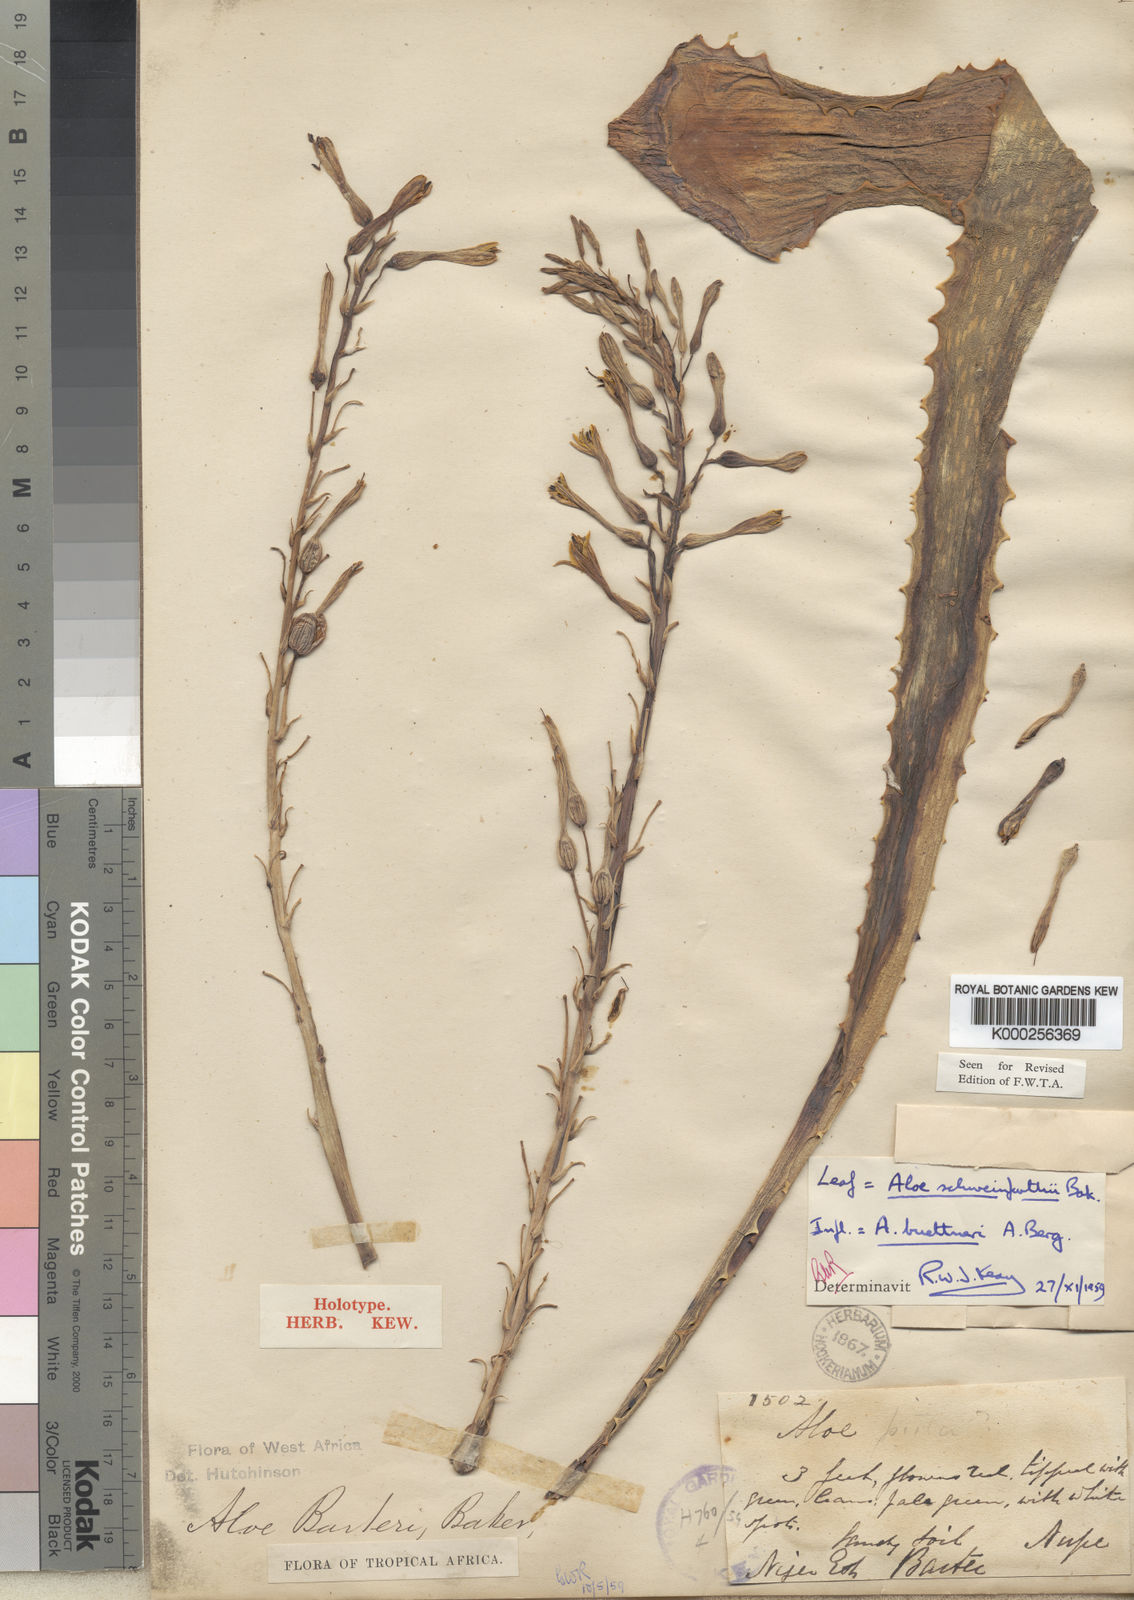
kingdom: Plantae
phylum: Tracheophyta
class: Liliopsida
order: Asparagales
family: Asphodelaceae
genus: Aloe
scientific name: Aloe schweinfurthii
